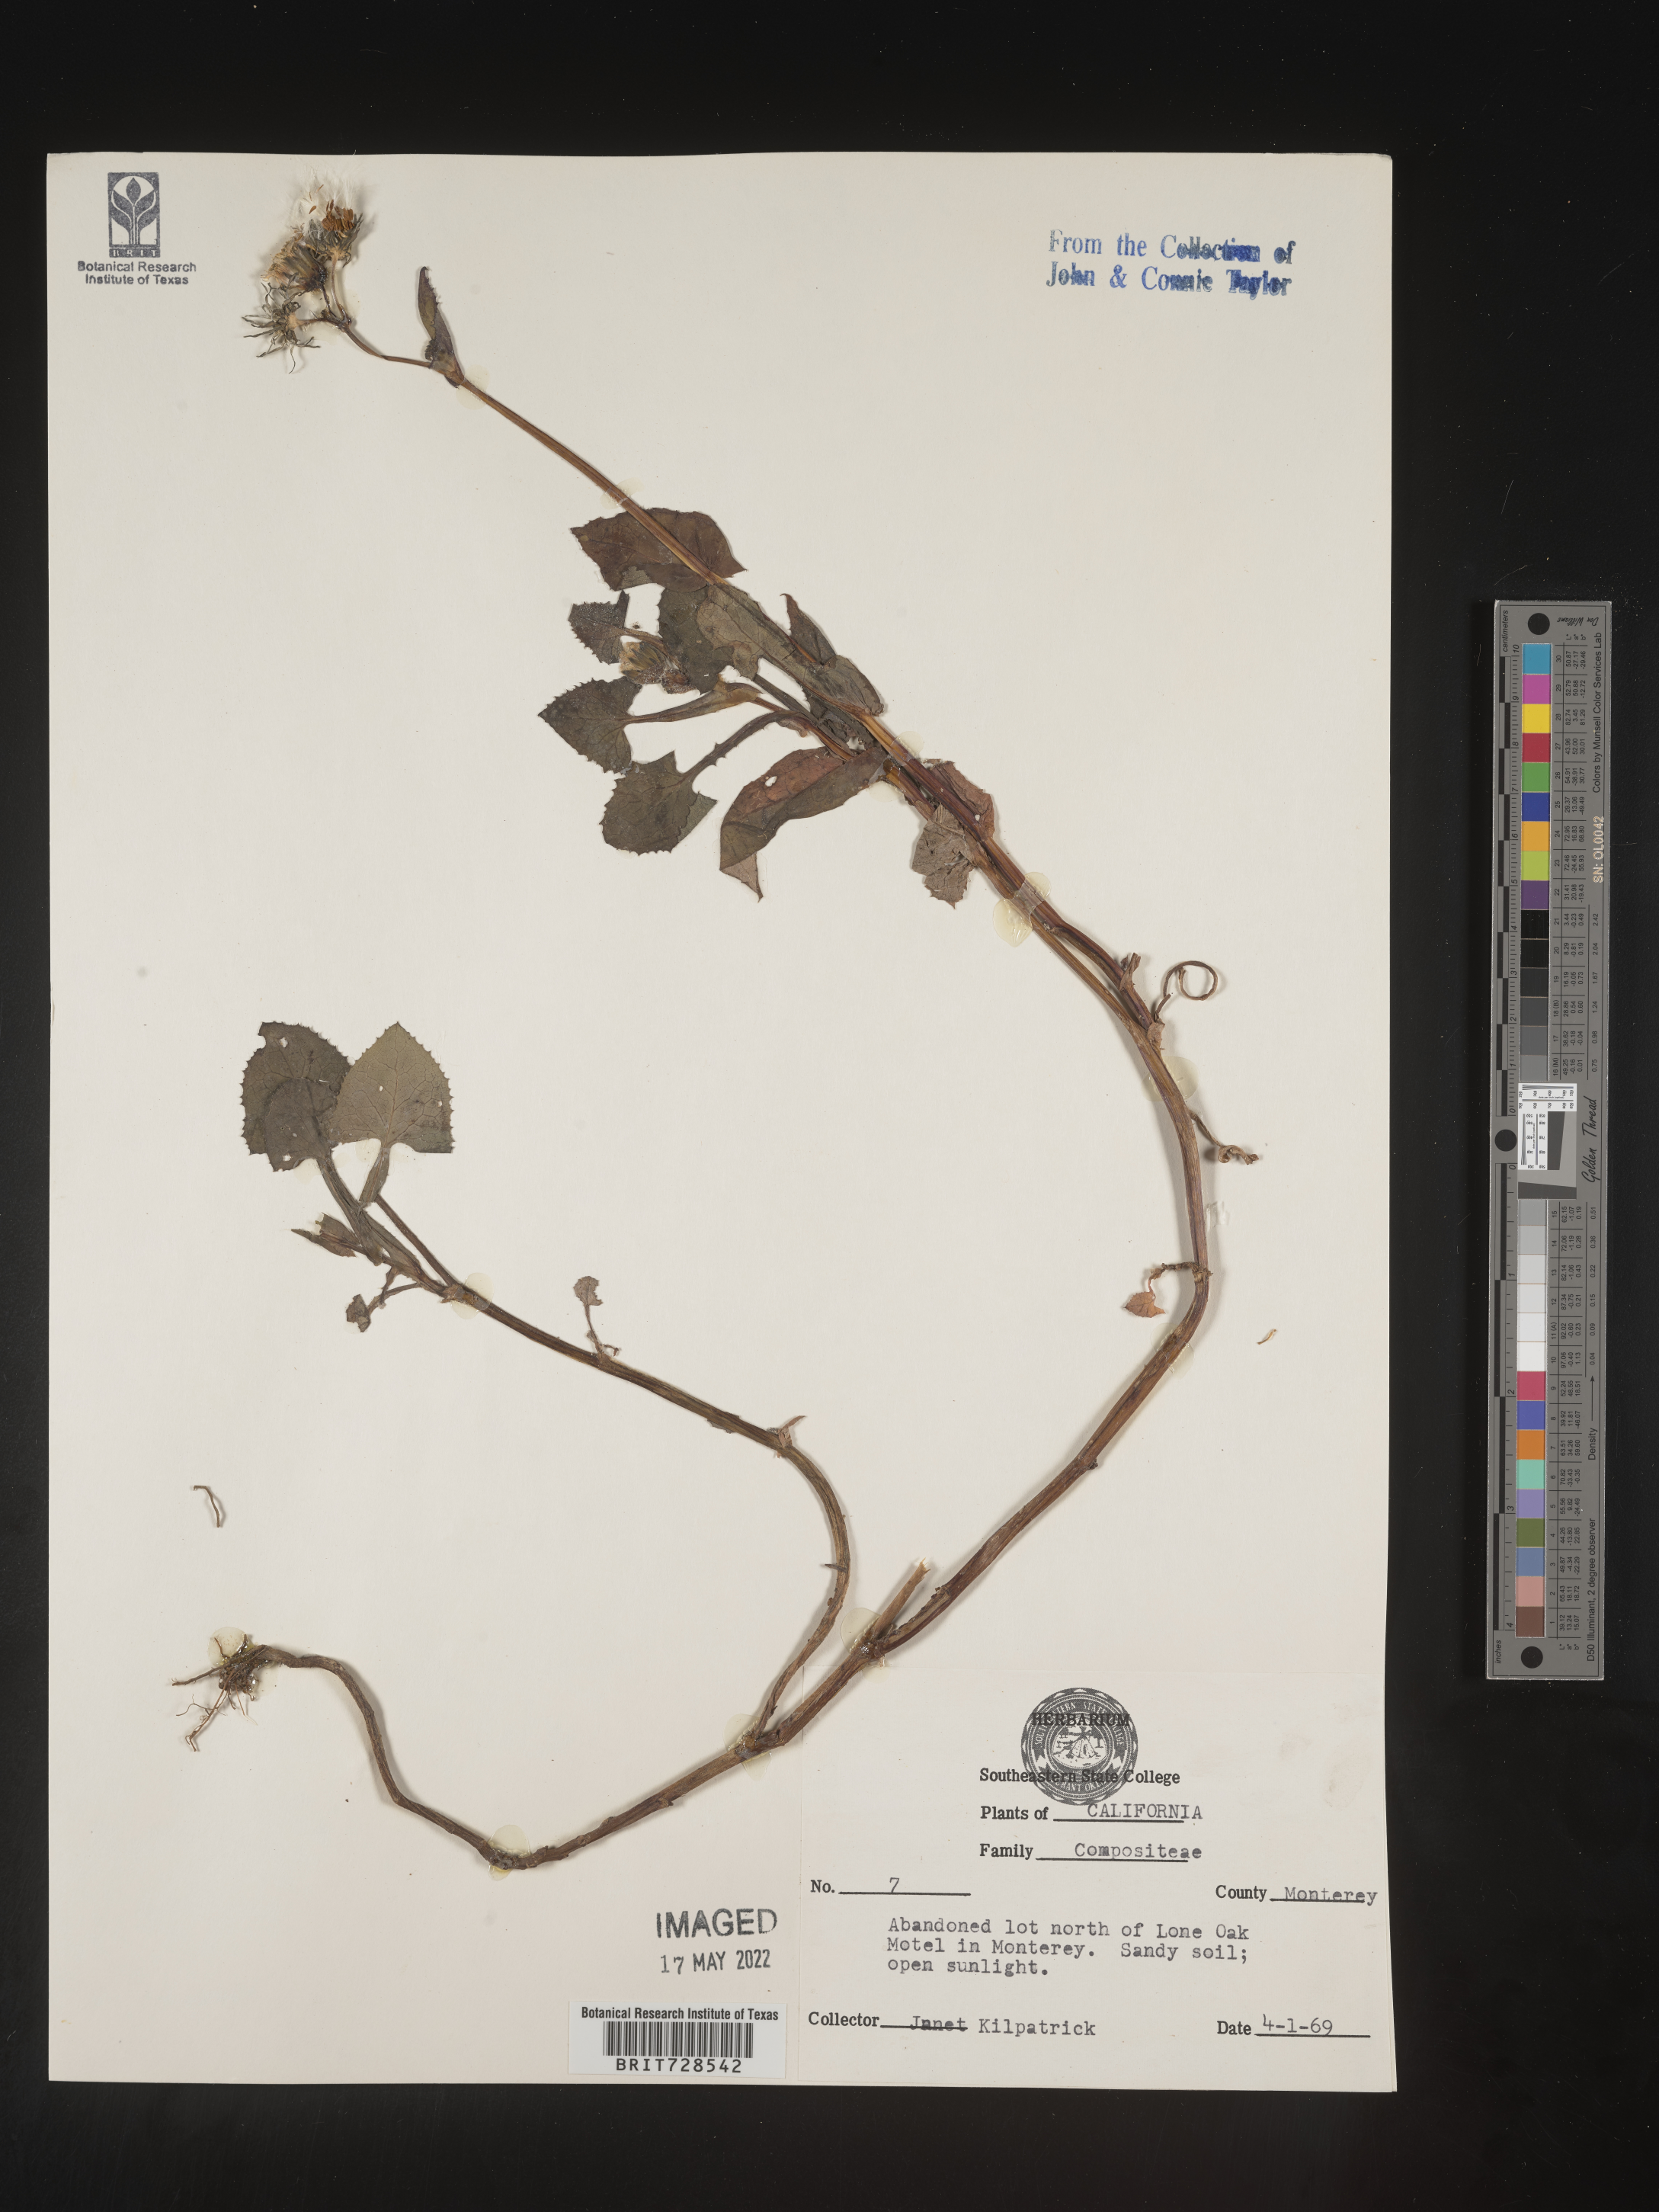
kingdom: Plantae
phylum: Tracheophyta
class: Magnoliopsida
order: Asterales
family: Asteraceae
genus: Lactuca
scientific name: Lactuca
